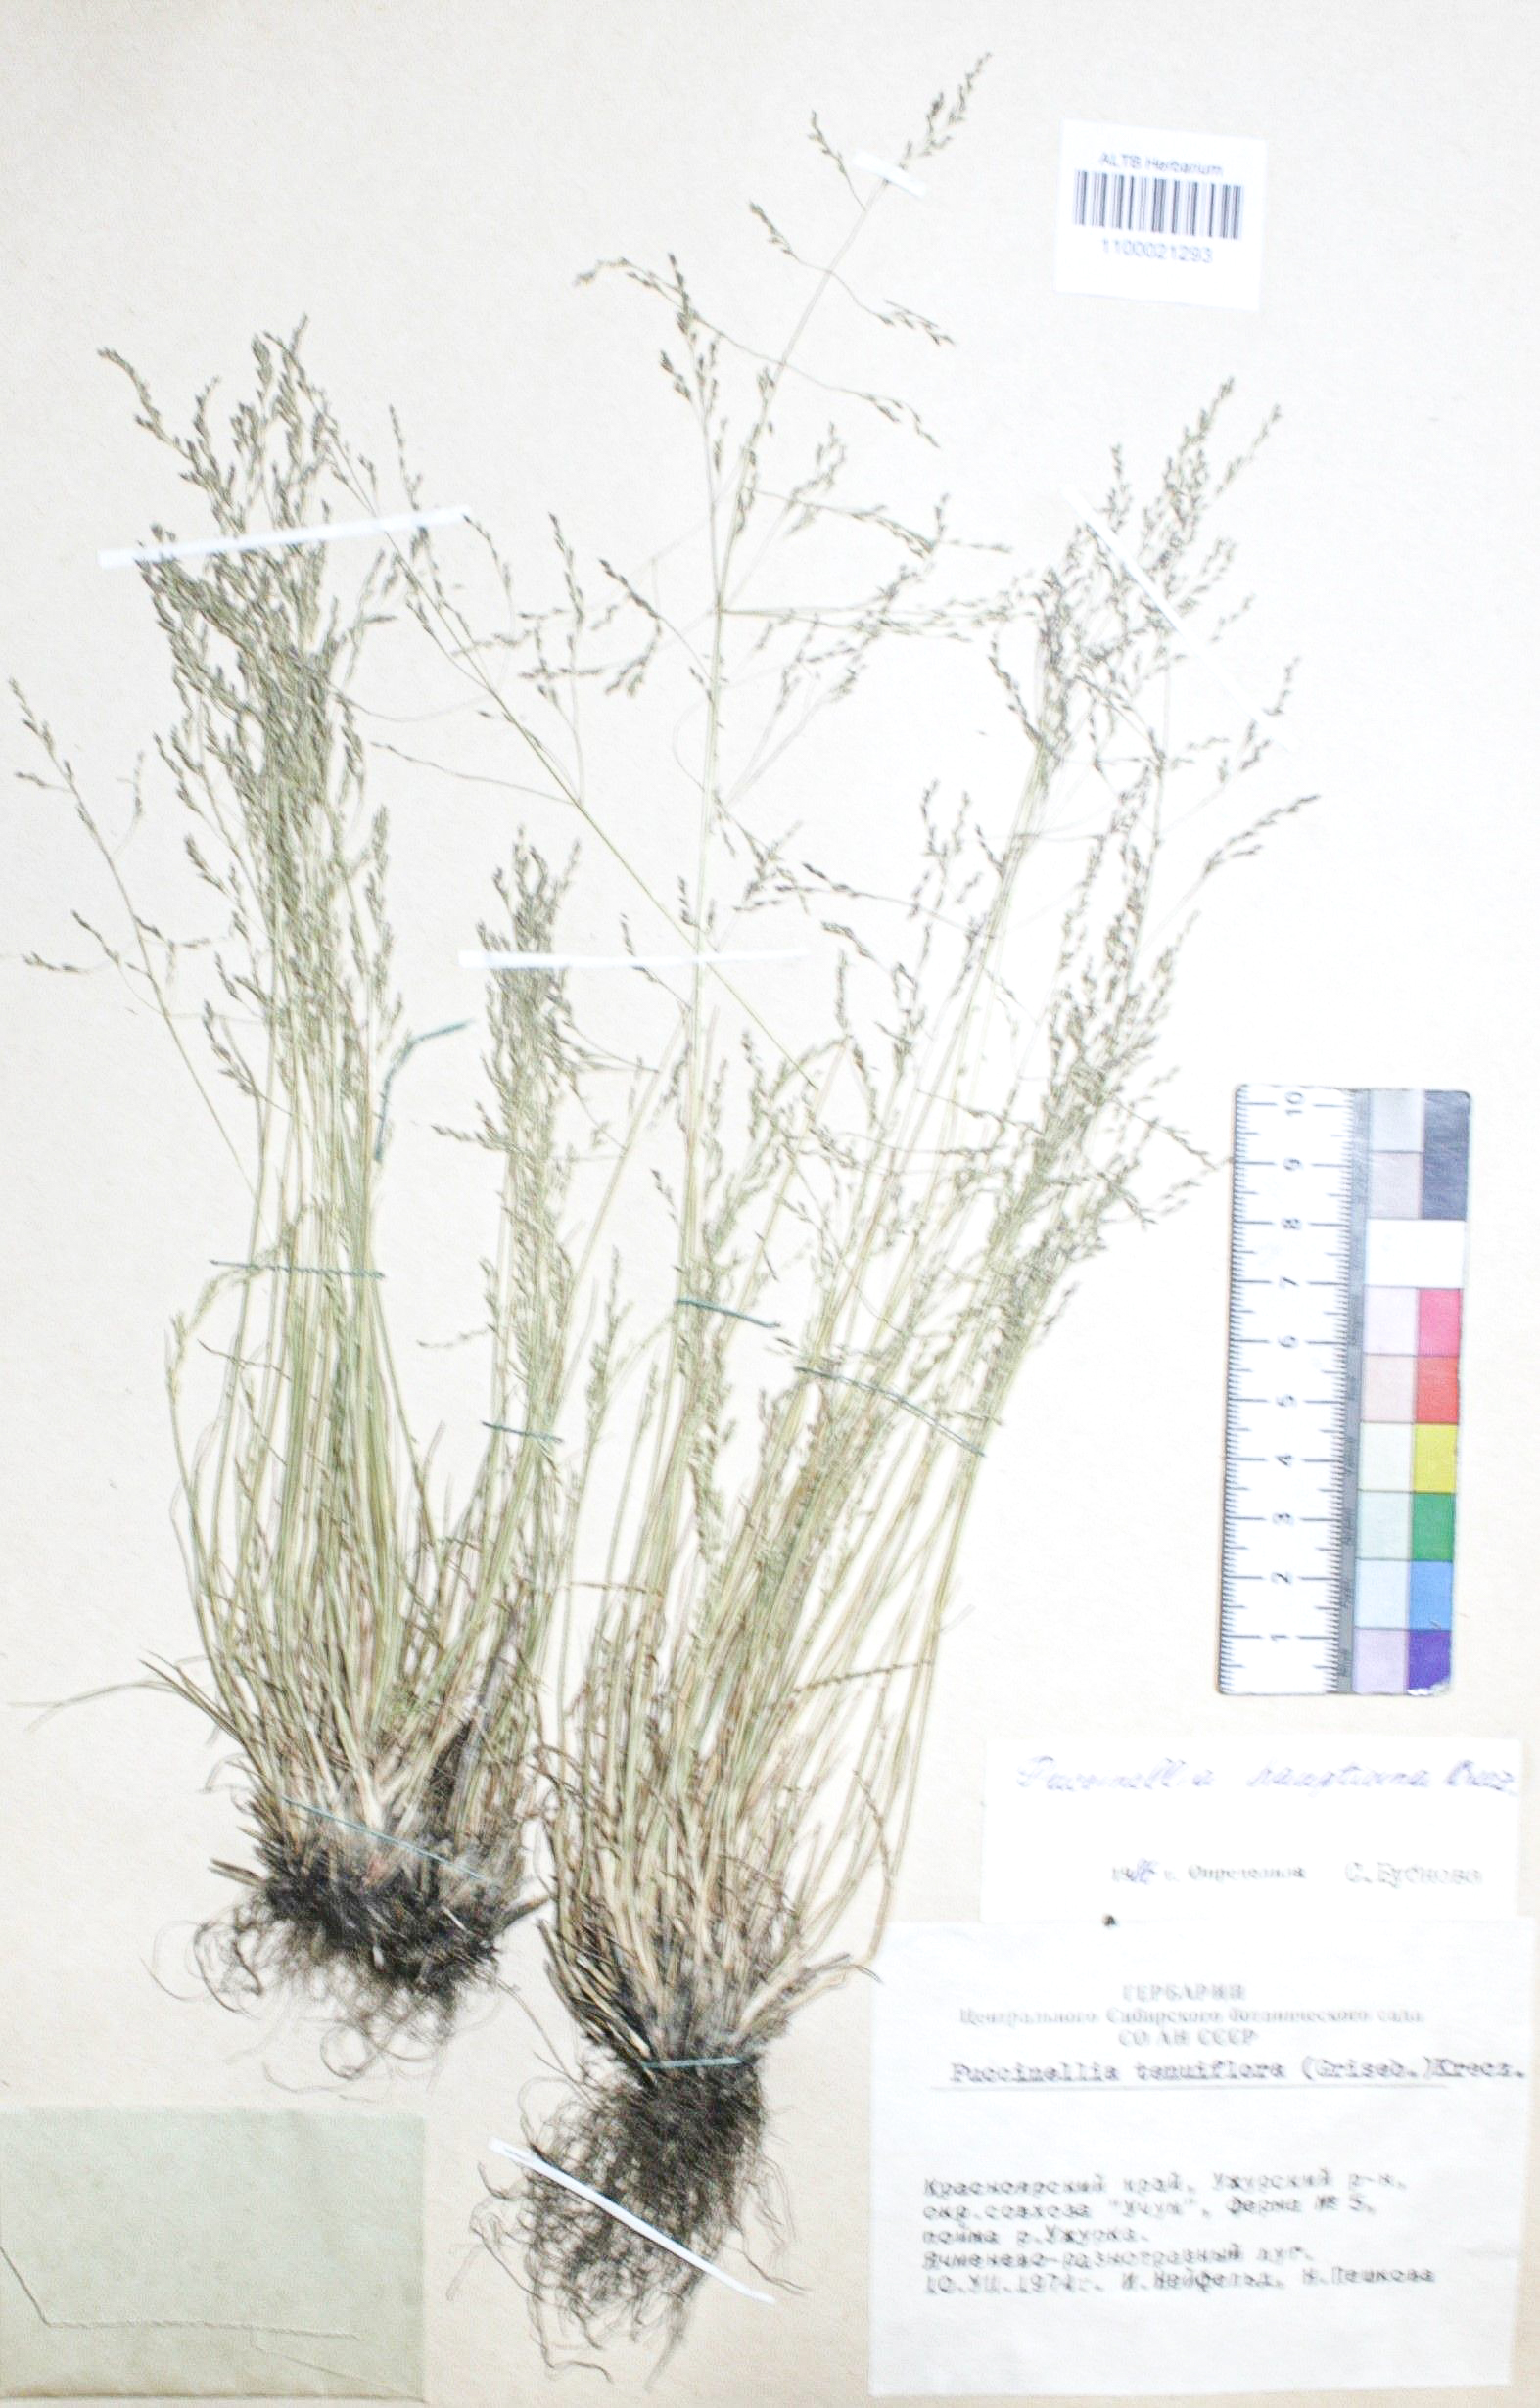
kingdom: Plantae
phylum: Tracheophyta
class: Liliopsida
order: Poales
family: Poaceae
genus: Puccinellia
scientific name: Puccinellia hauptiana
